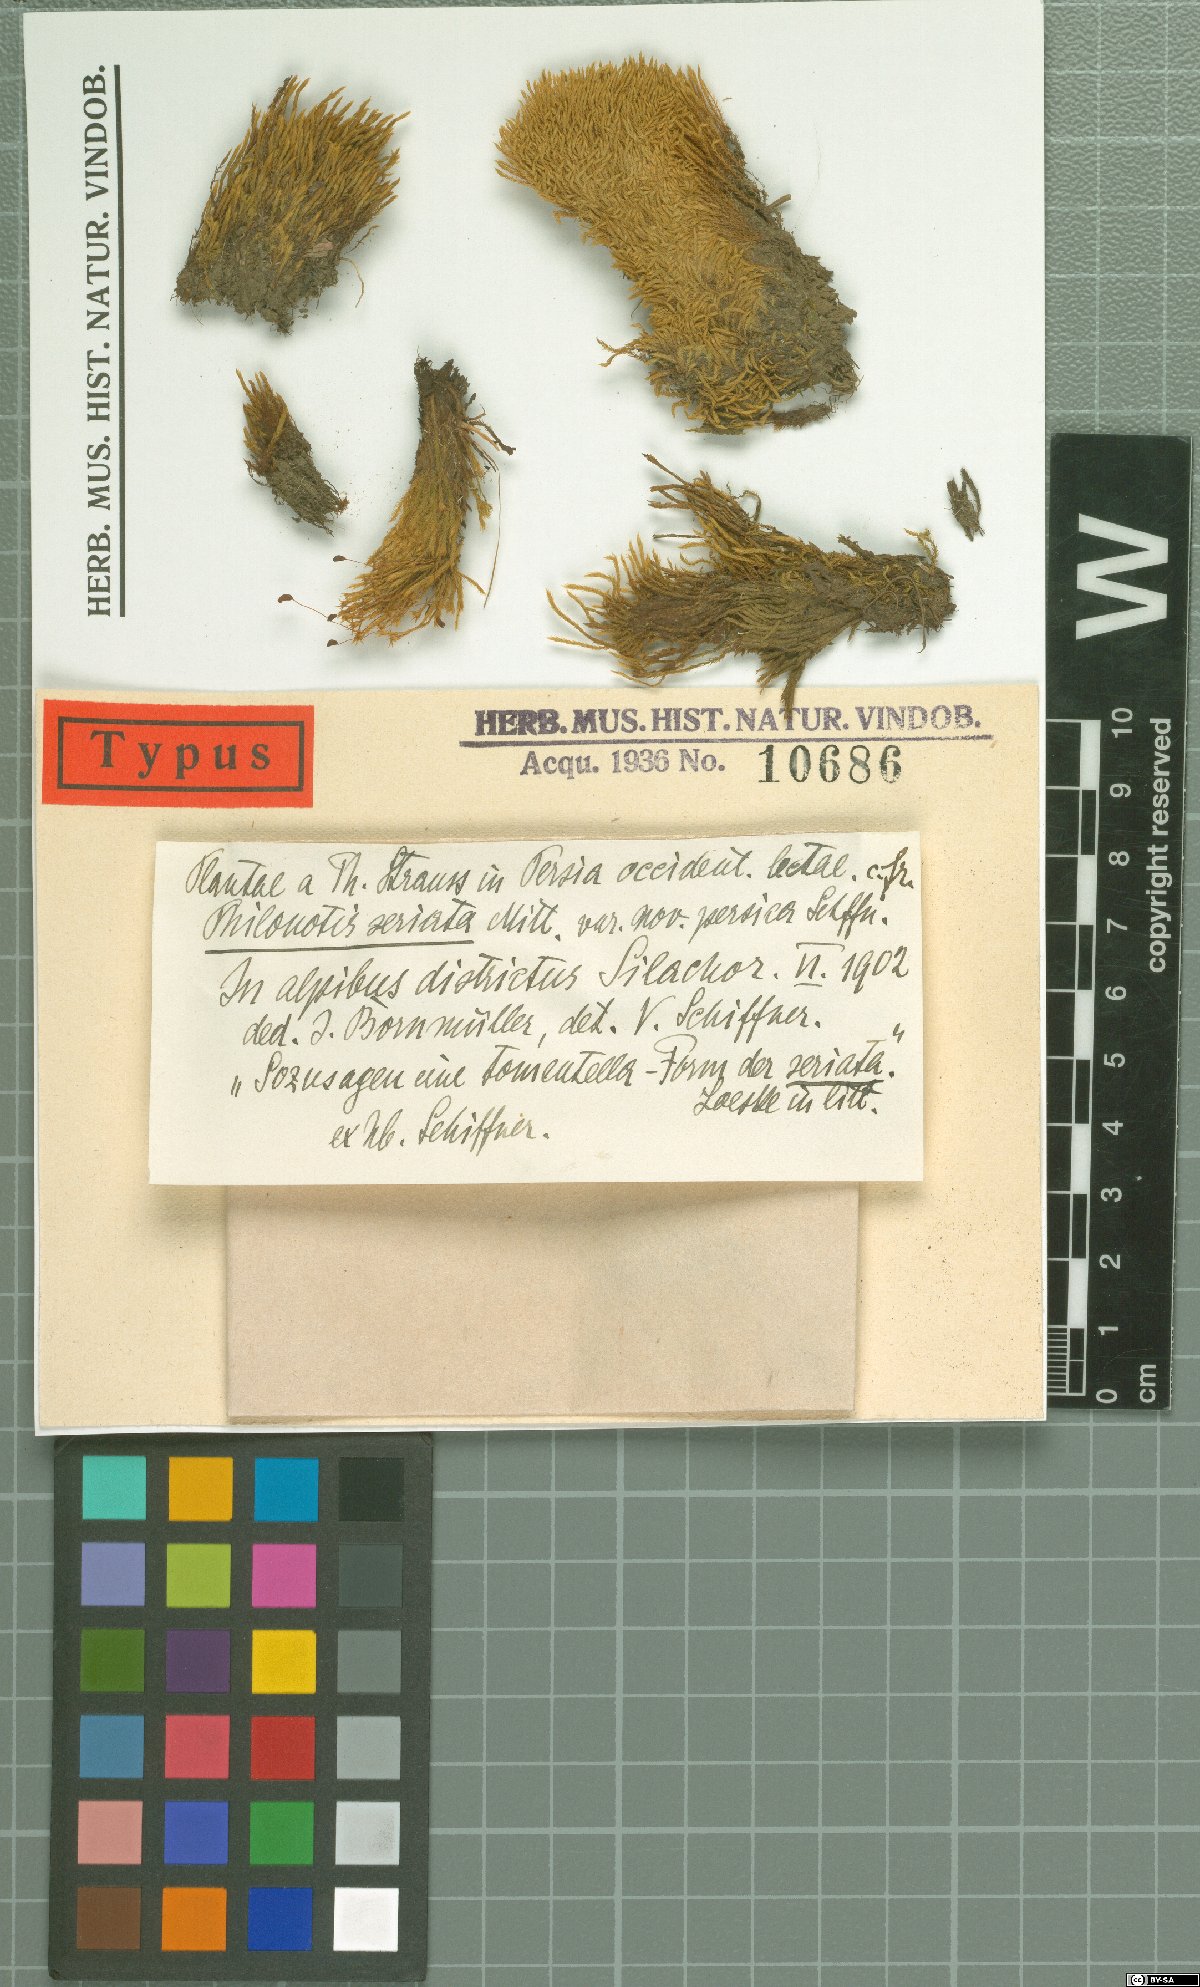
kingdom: Plantae
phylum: Bryophyta
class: Bryopsida
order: Bartramiales
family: Bartramiaceae
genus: Philonotis
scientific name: Philonotis seriata
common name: Spiral apple-moss
